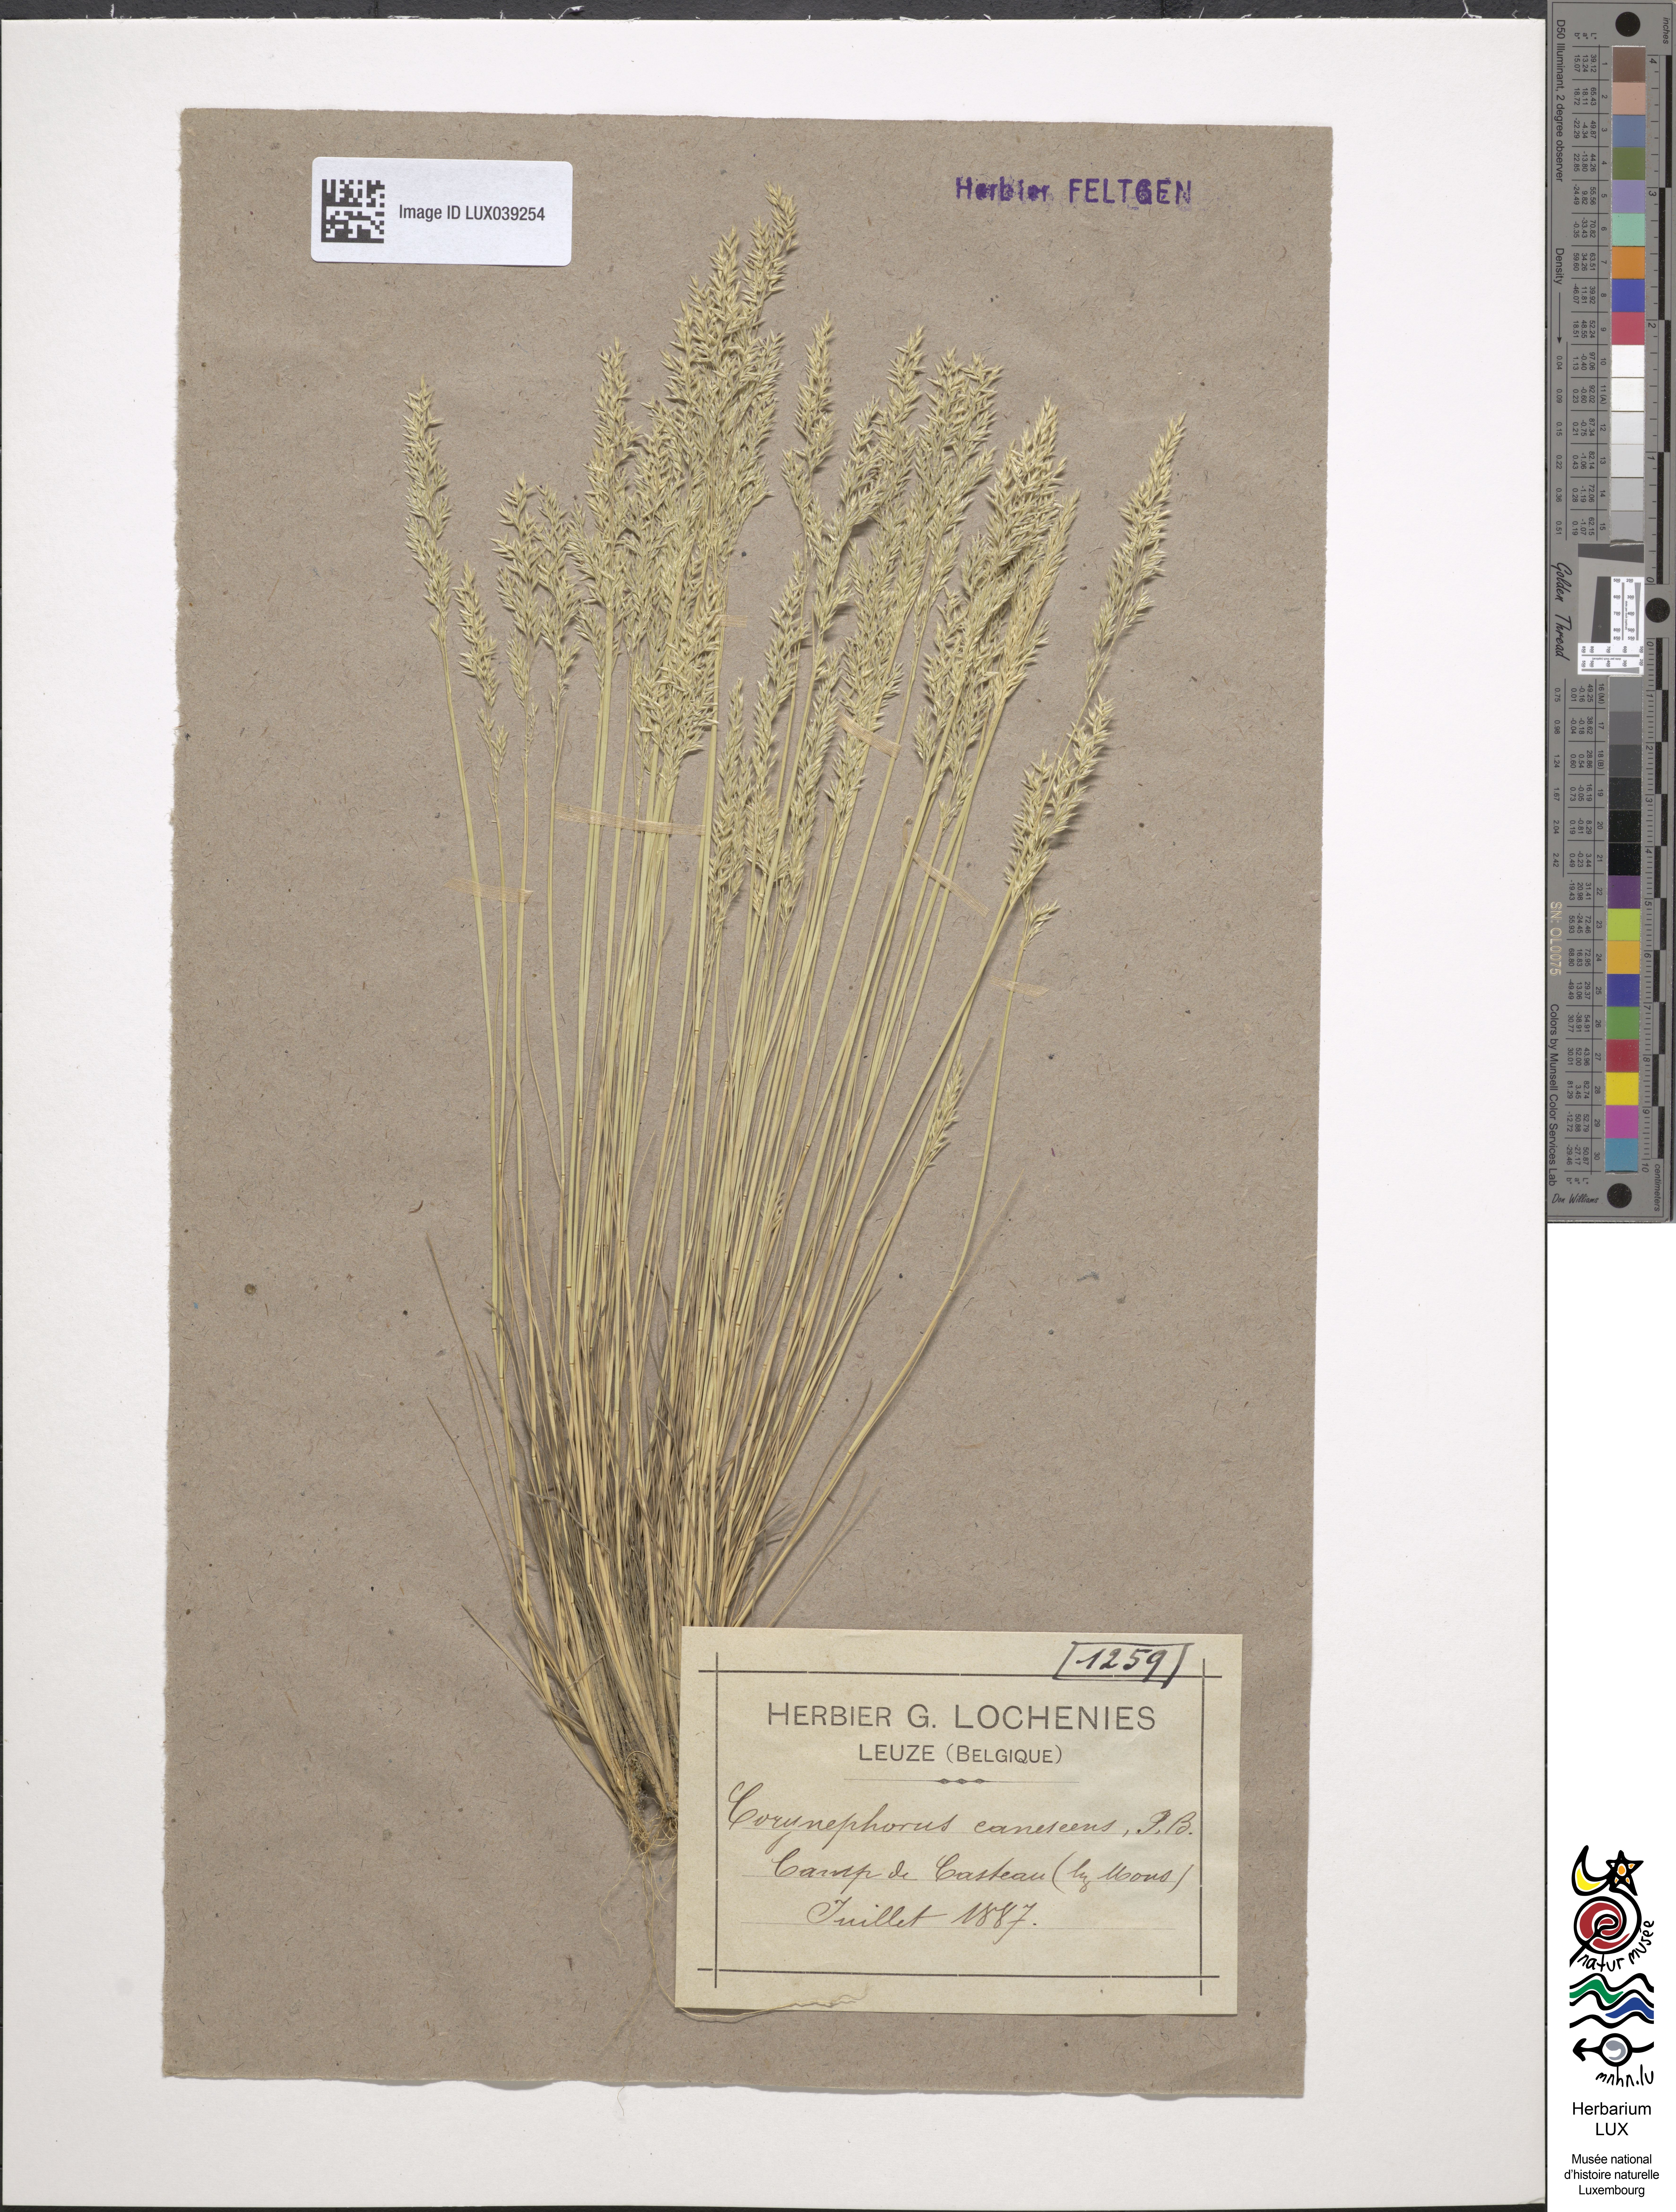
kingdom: Plantae
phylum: Tracheophyta
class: Liliopsida
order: Poales
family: Poaceae
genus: Corynephorus
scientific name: Corynephorus canescens
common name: Grey hair-grass
